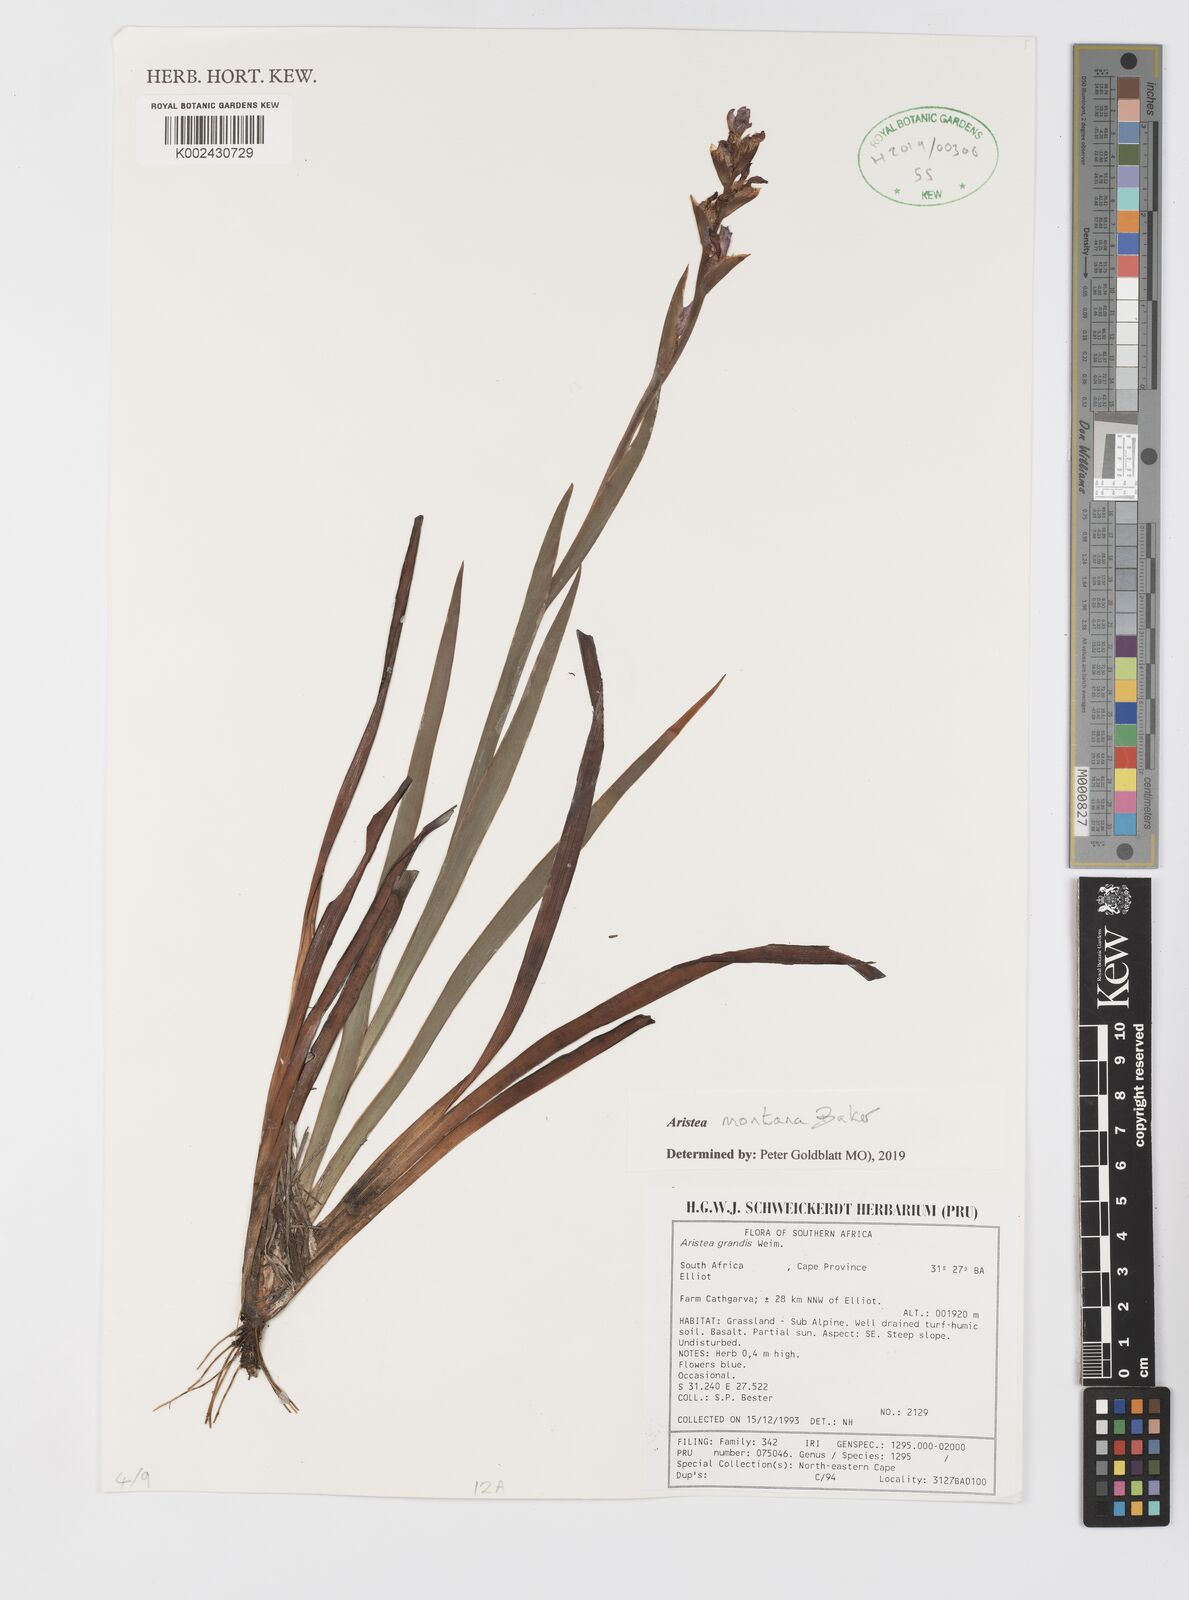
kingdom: Plantae
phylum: Tracheophyta
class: Liliopsida
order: Asparagales
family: Iridaceae
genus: Aristea
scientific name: Aristea montana
